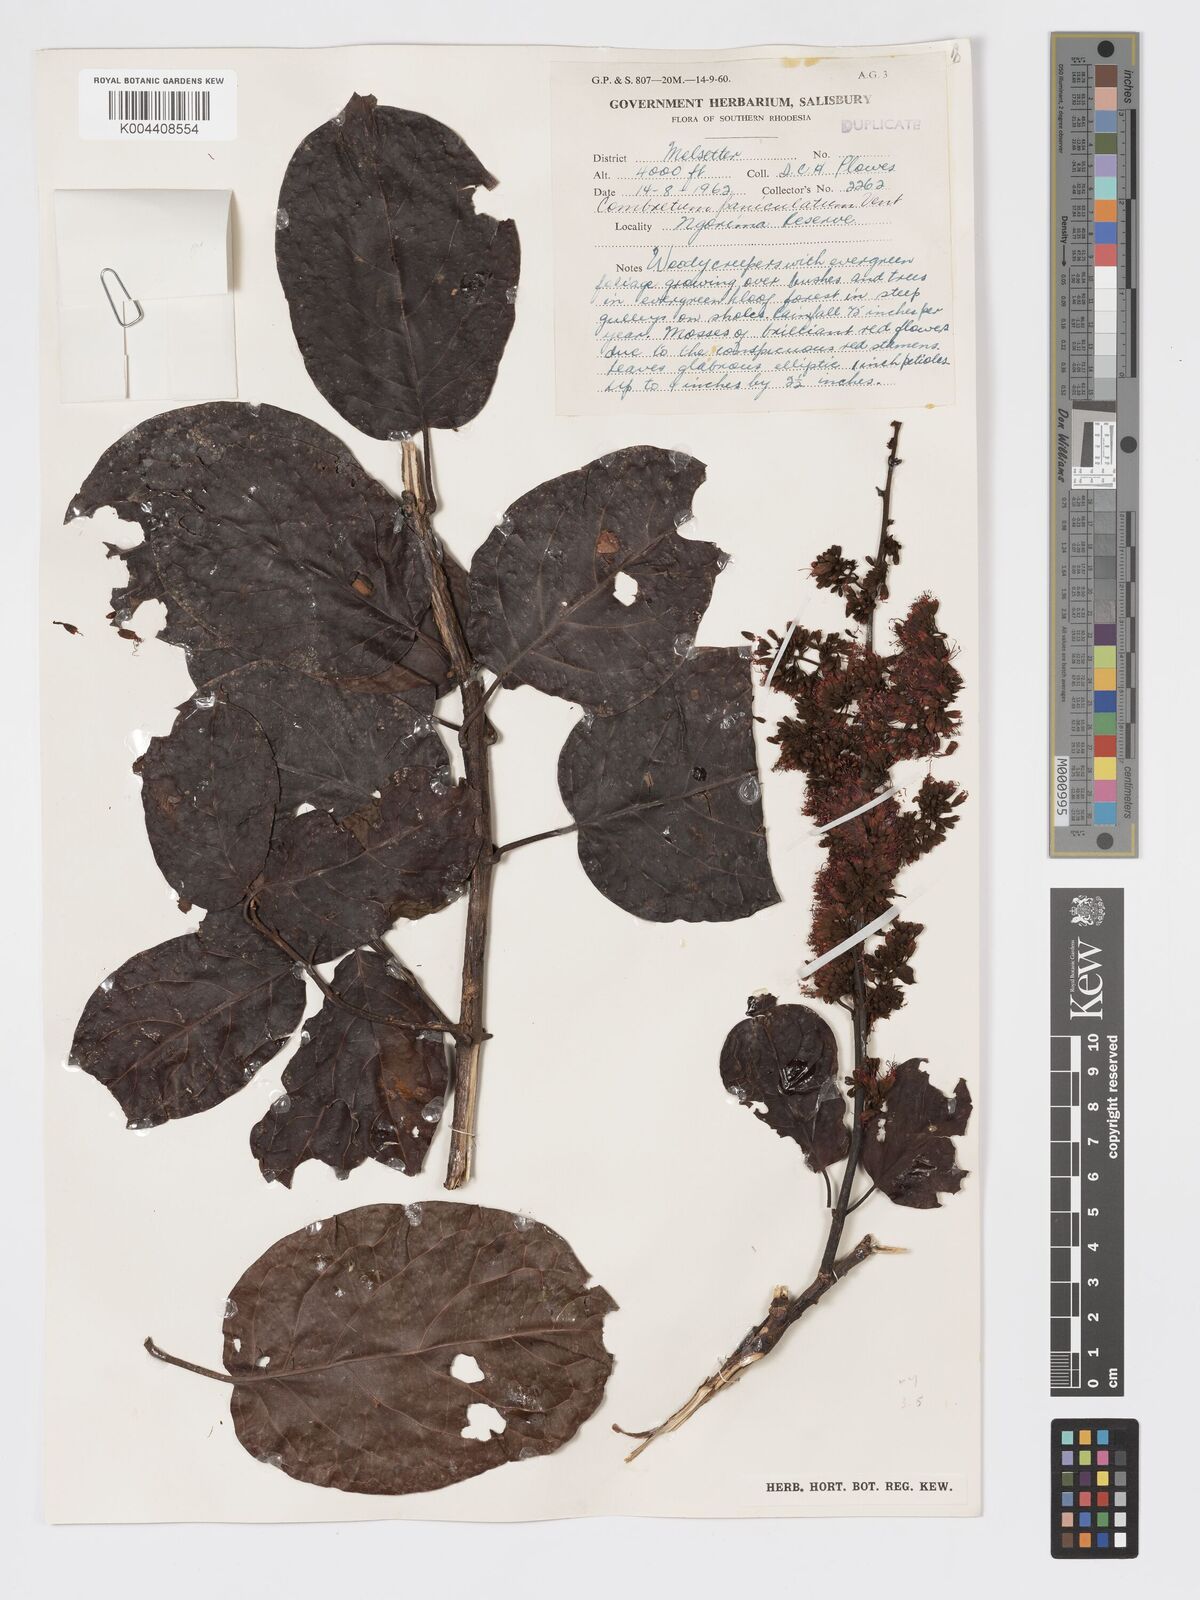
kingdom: Plantae
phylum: Tracheophyta
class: Magnoliopsida
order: Myrtales
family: Combretaceae
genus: Combretum
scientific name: Combretum paniculatum
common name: Fire vine
